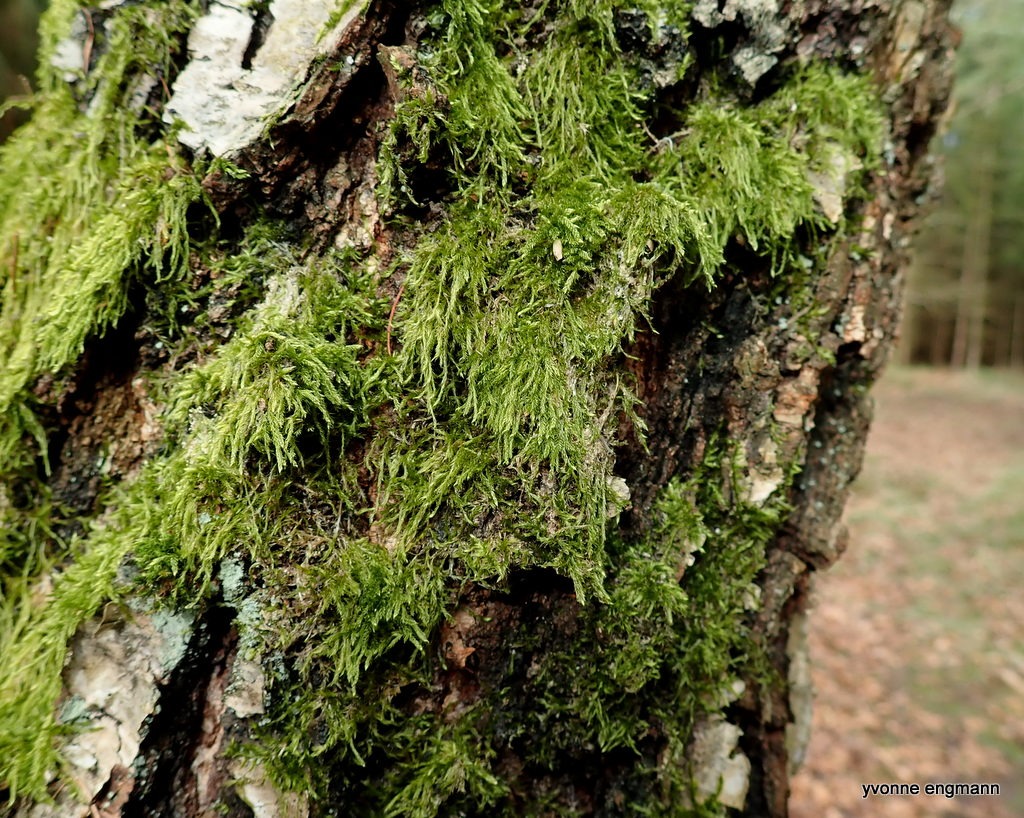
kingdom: Plantae
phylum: Bryophyta
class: Bryopsida
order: Hypnales
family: Hypnaceae
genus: Hypnum
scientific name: Hypnum cupressiforme
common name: Almindelig cypresmos
